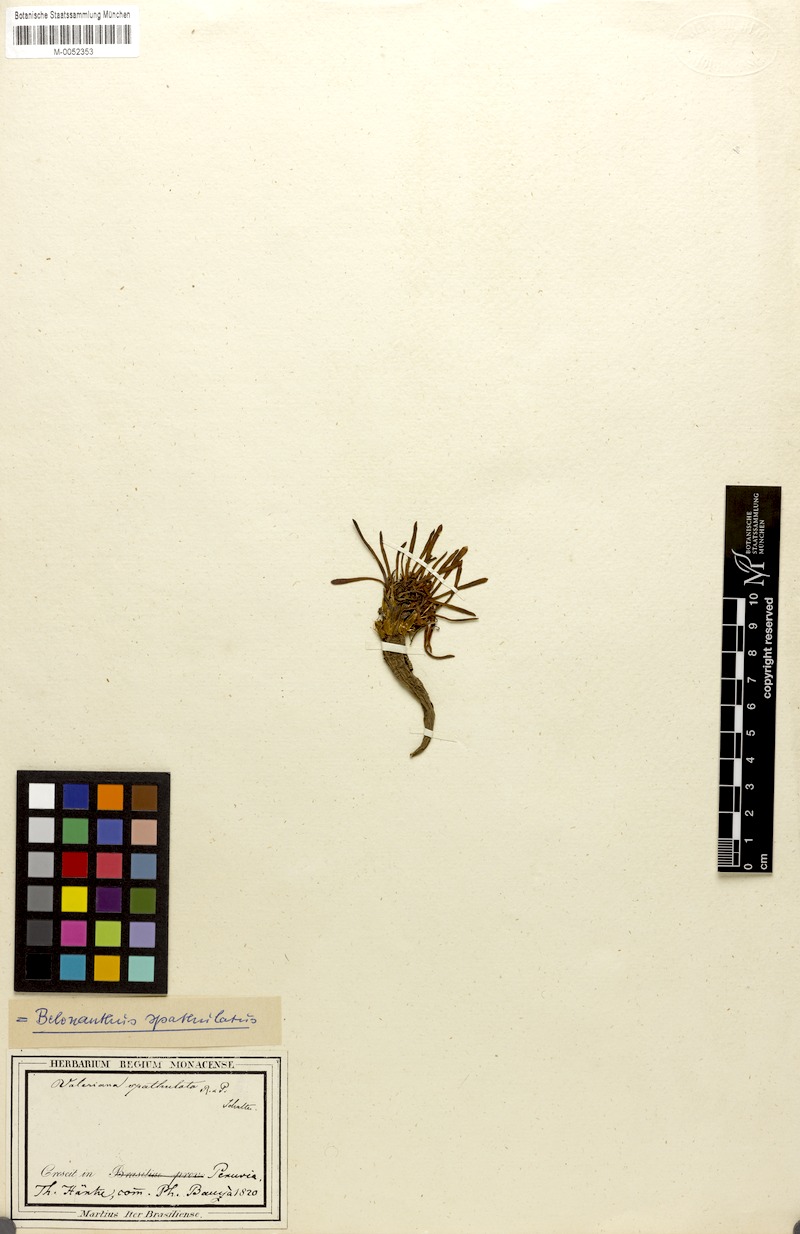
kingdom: Plantae
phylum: Tracheophyta
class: Magnoliopsida
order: Dipsacales
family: Caprifoliaceae
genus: Valeriana
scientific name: Valeriana spathulata
